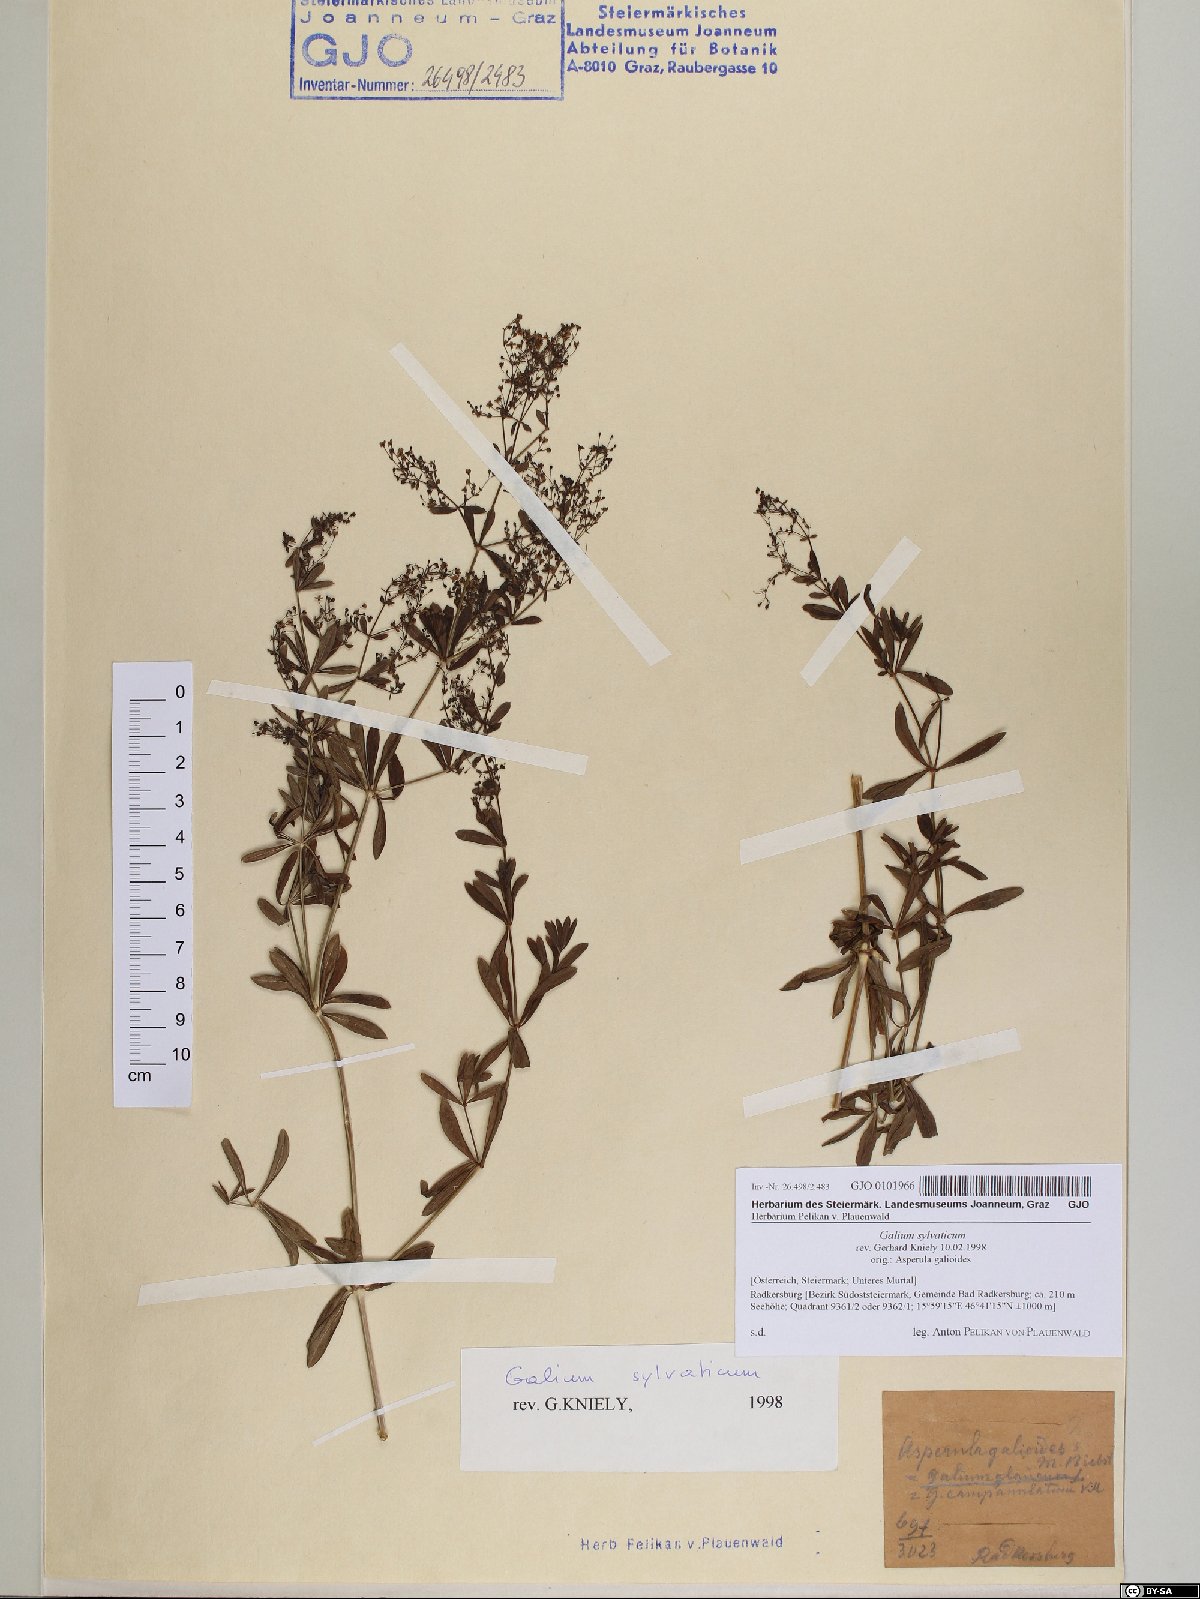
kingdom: Plantae
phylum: Tracheophyta
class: Magnoliopsida
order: Gentianales
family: Rubiaceae
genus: Galium
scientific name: Galium sylvaticum
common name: Wood bedstraw
